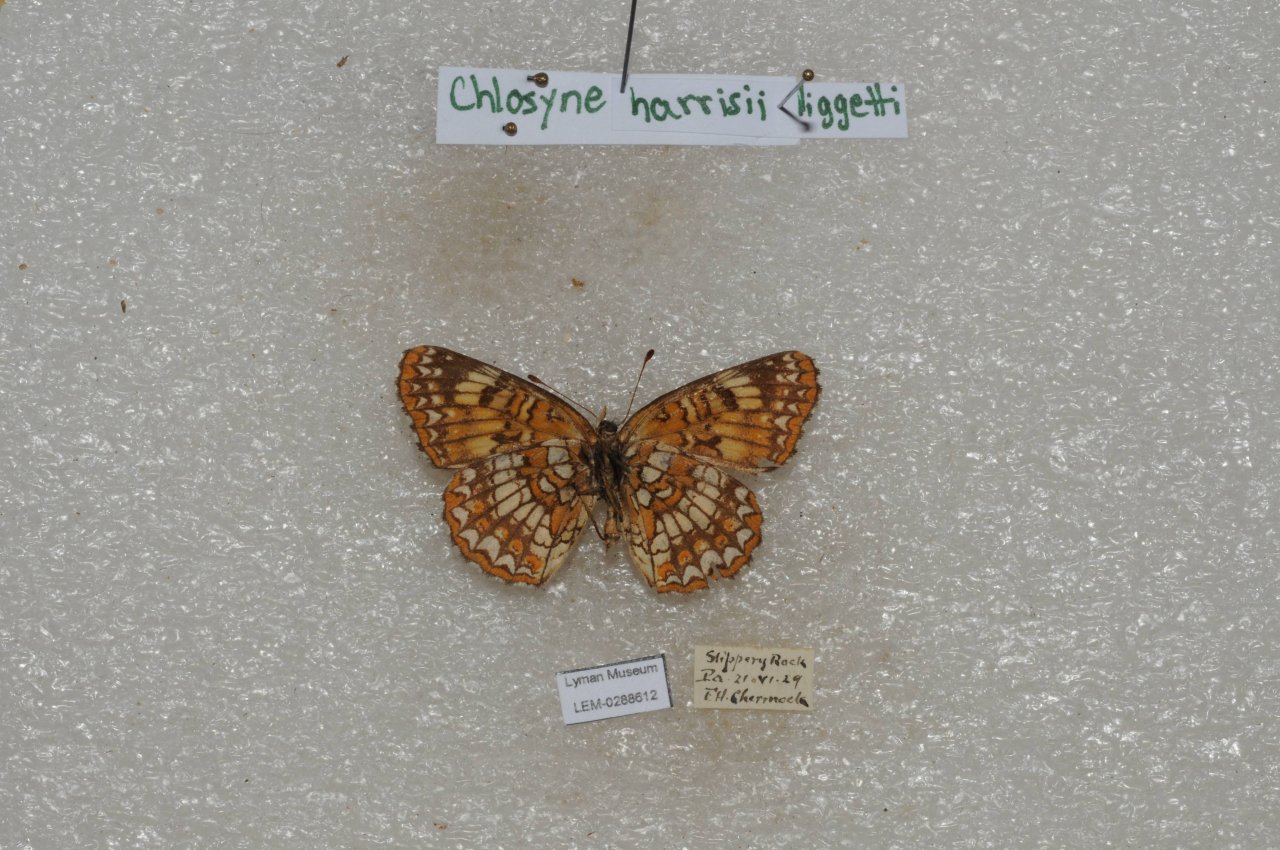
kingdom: Animalia
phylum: Arthropoda
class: Insecta
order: Lepidoptera
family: Nymphalidae
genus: Chlosyne
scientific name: Chlosyne harrisii
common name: Harris's Checkerspot
